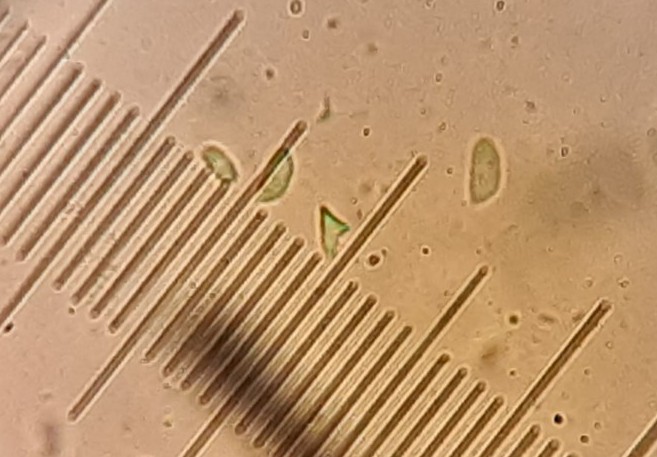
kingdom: Fungi
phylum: Basidiomycota
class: Agaricomycetes
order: Agaricales
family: Typhulaceae
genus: Typhula
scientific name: Typhula setipes
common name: liden trådkølle
